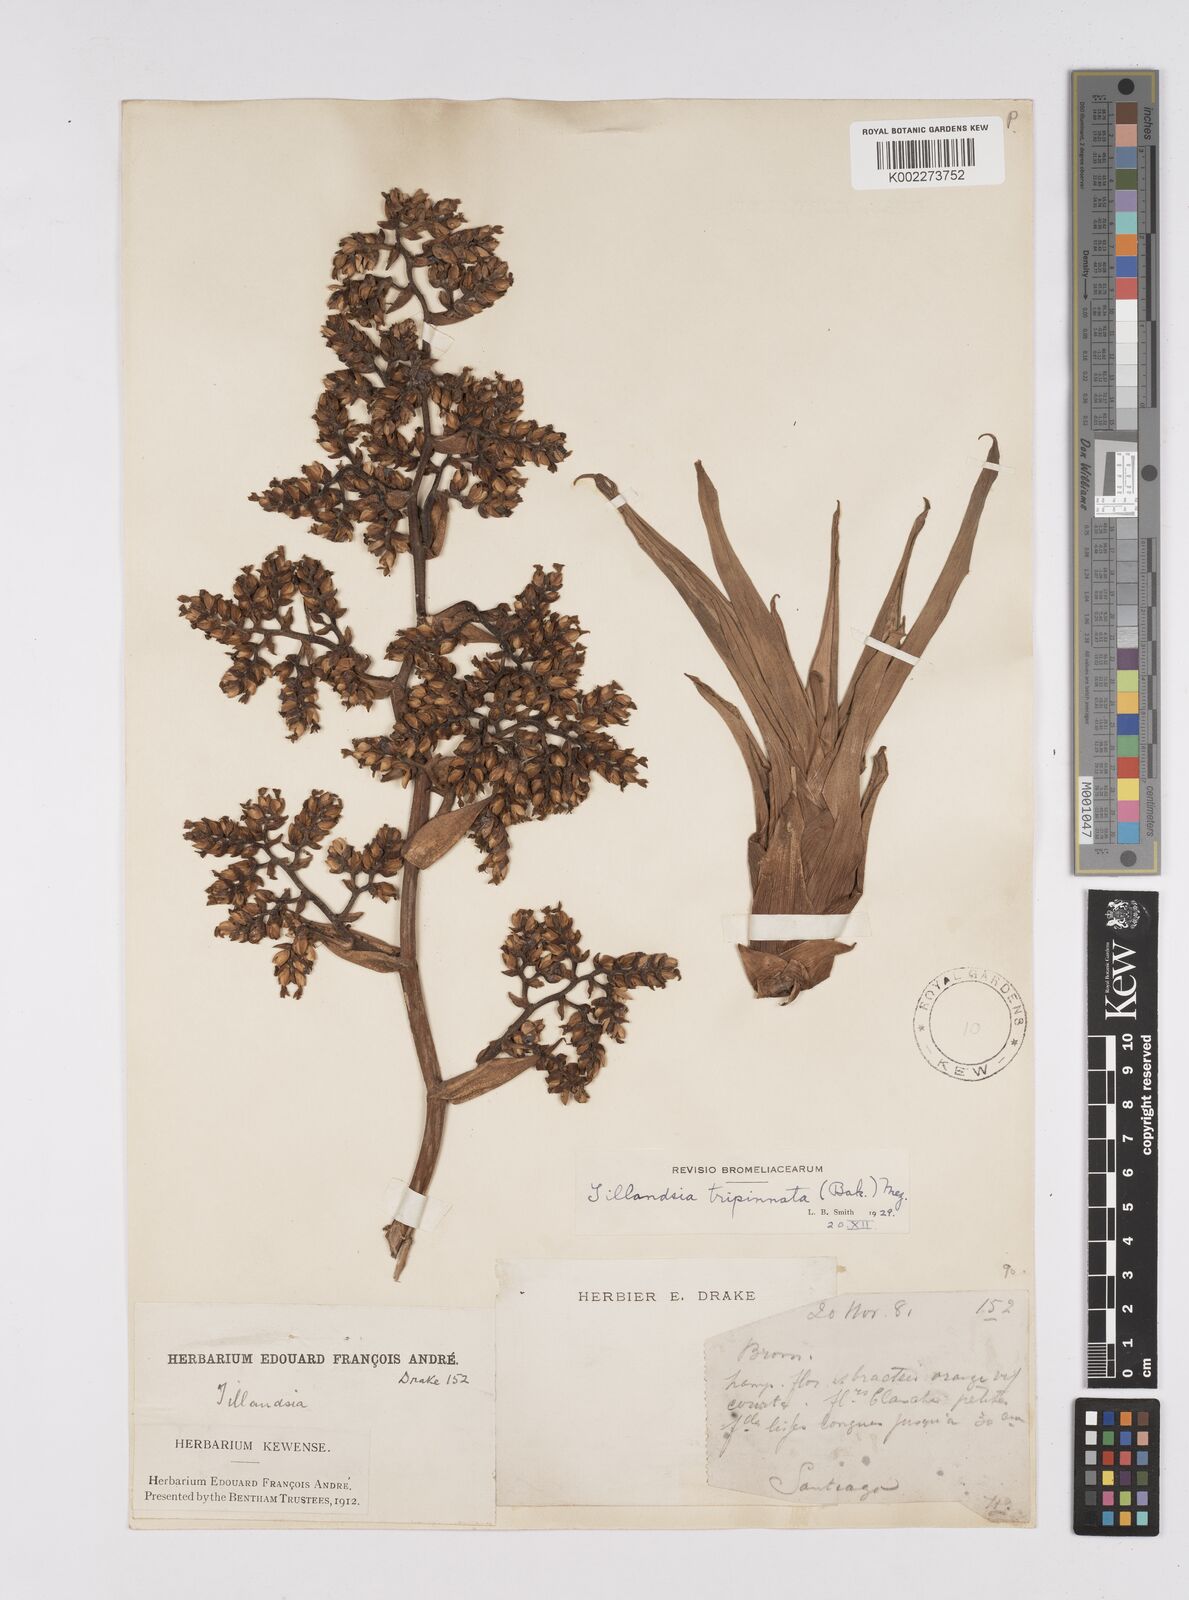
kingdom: Plantae
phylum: Tracheophyta
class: Liliopsida
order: Poales
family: Bromeliaceae
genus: Racinaea
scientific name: Racinaea tripinnata
